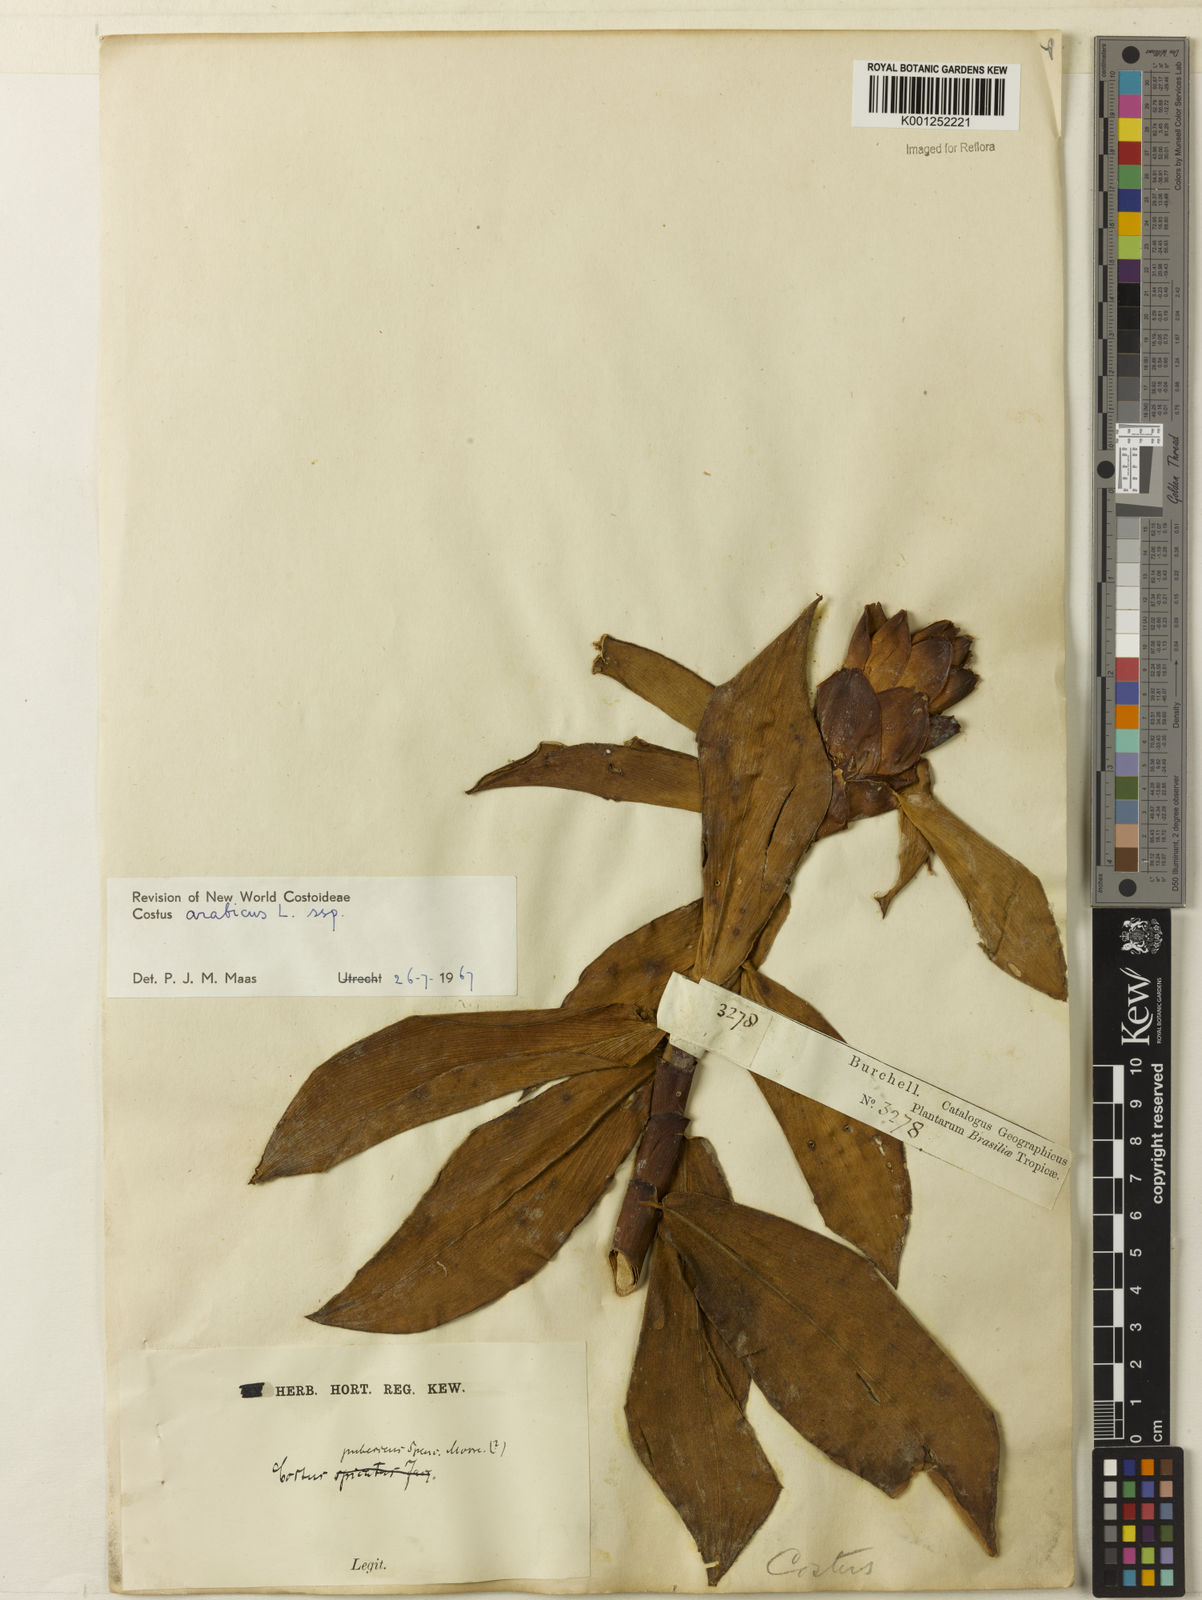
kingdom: Plantae
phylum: Tracheophyta
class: Liliopsida
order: Zingiberales
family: Costaceae
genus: Costus
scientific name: Costus arabicus
